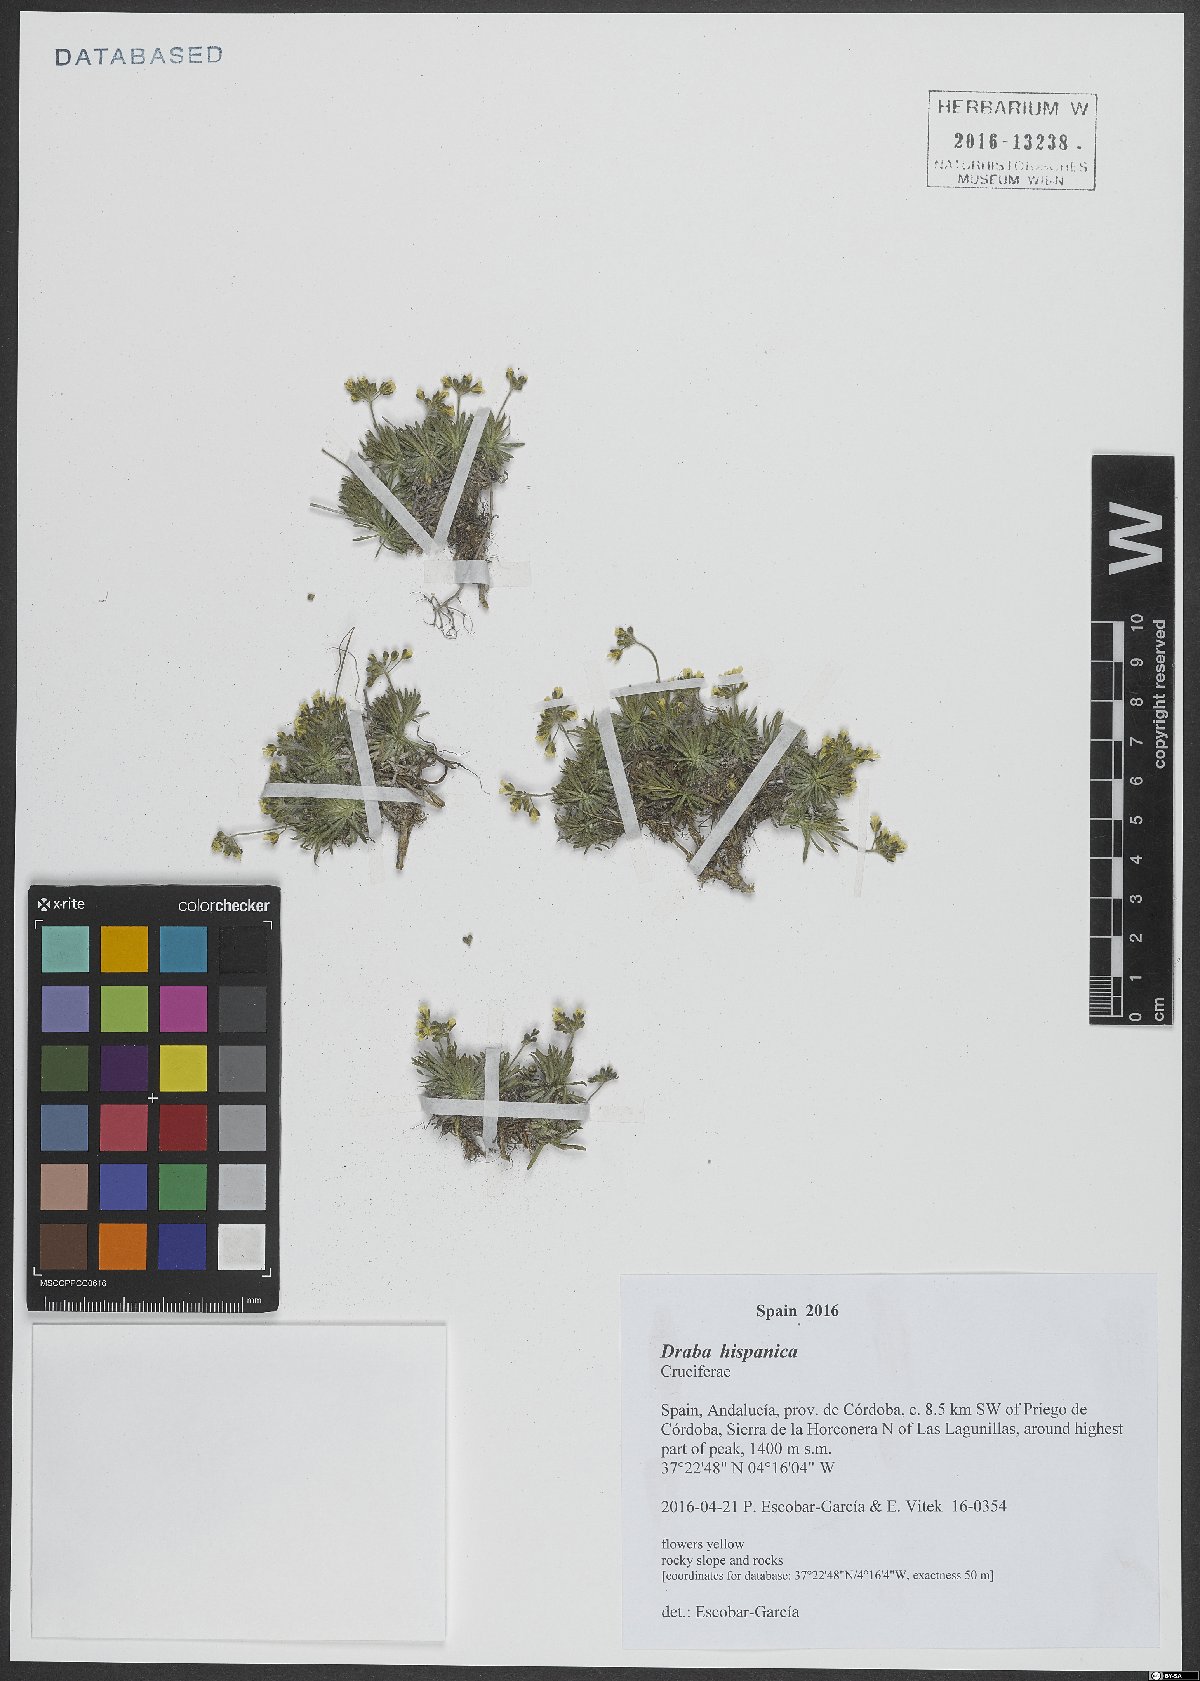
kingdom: Plantae
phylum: Tracheophyta
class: Magnoliopsida
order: Brassicales
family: Brassicaceae
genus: Draba
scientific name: Draba hispanica
